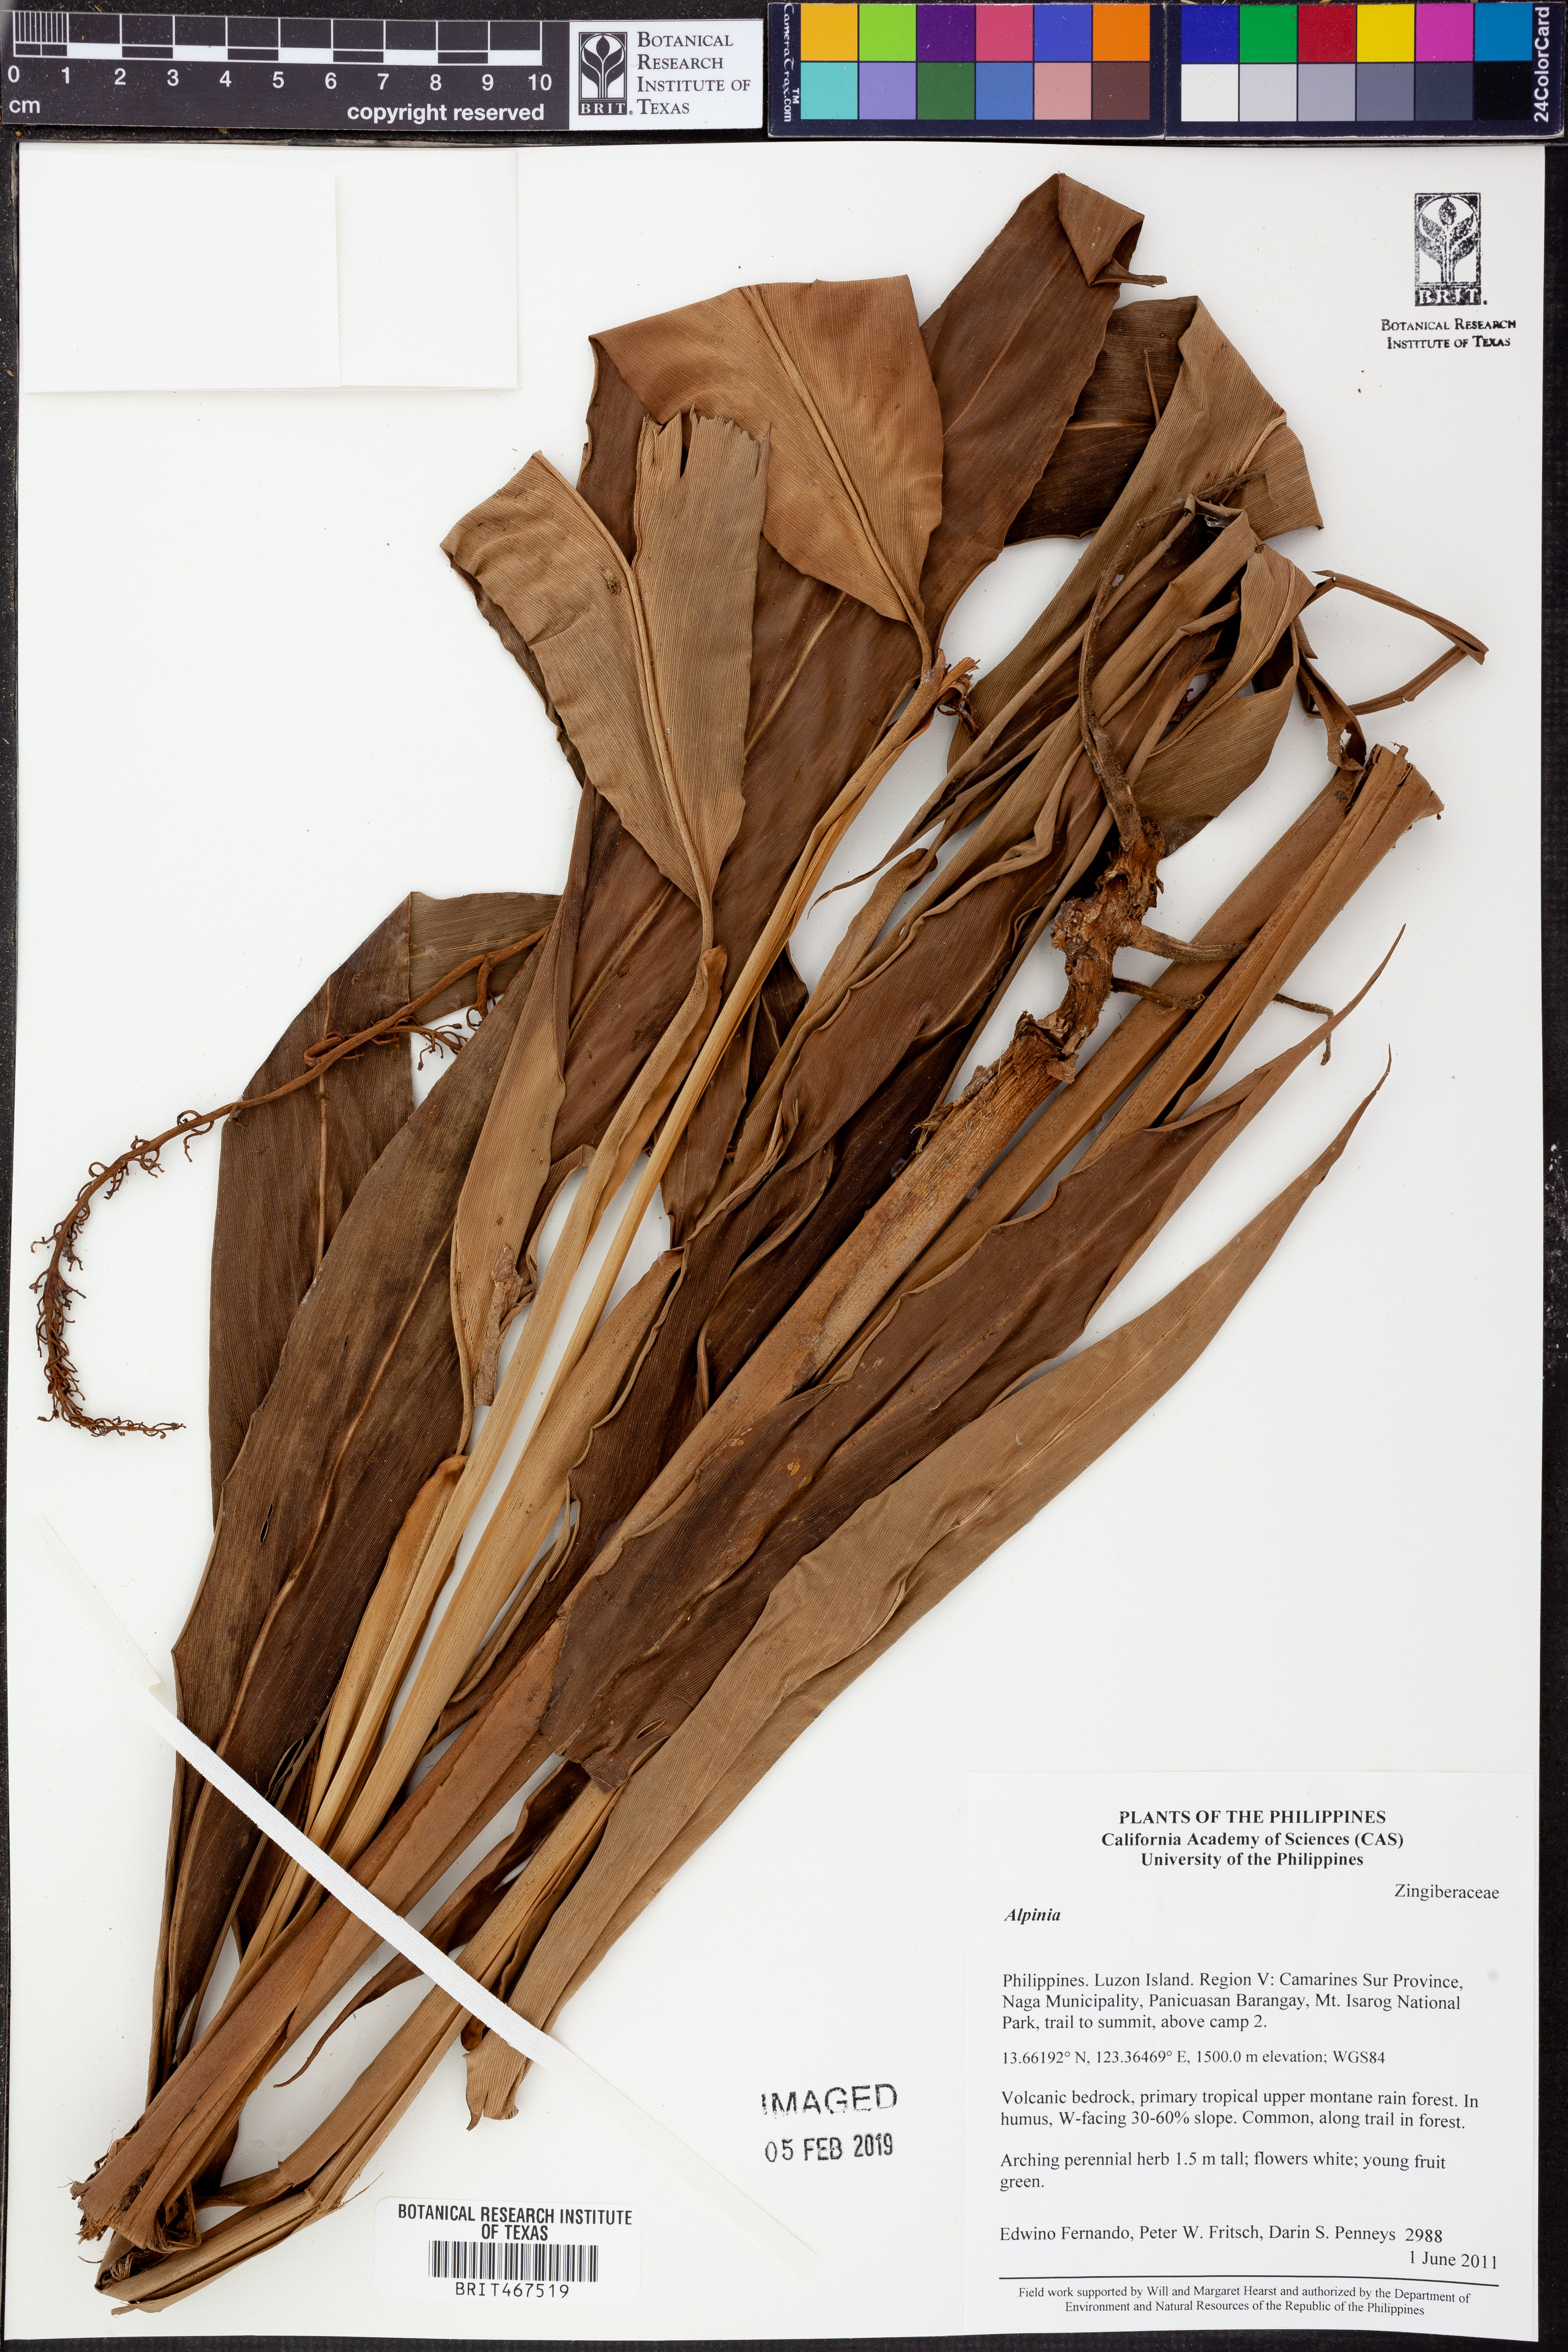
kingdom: Plantae
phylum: Tracheophyta
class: Liliopsida
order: Zingiberales
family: Zingiberaceae
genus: Alpinia
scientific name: Alpinia
